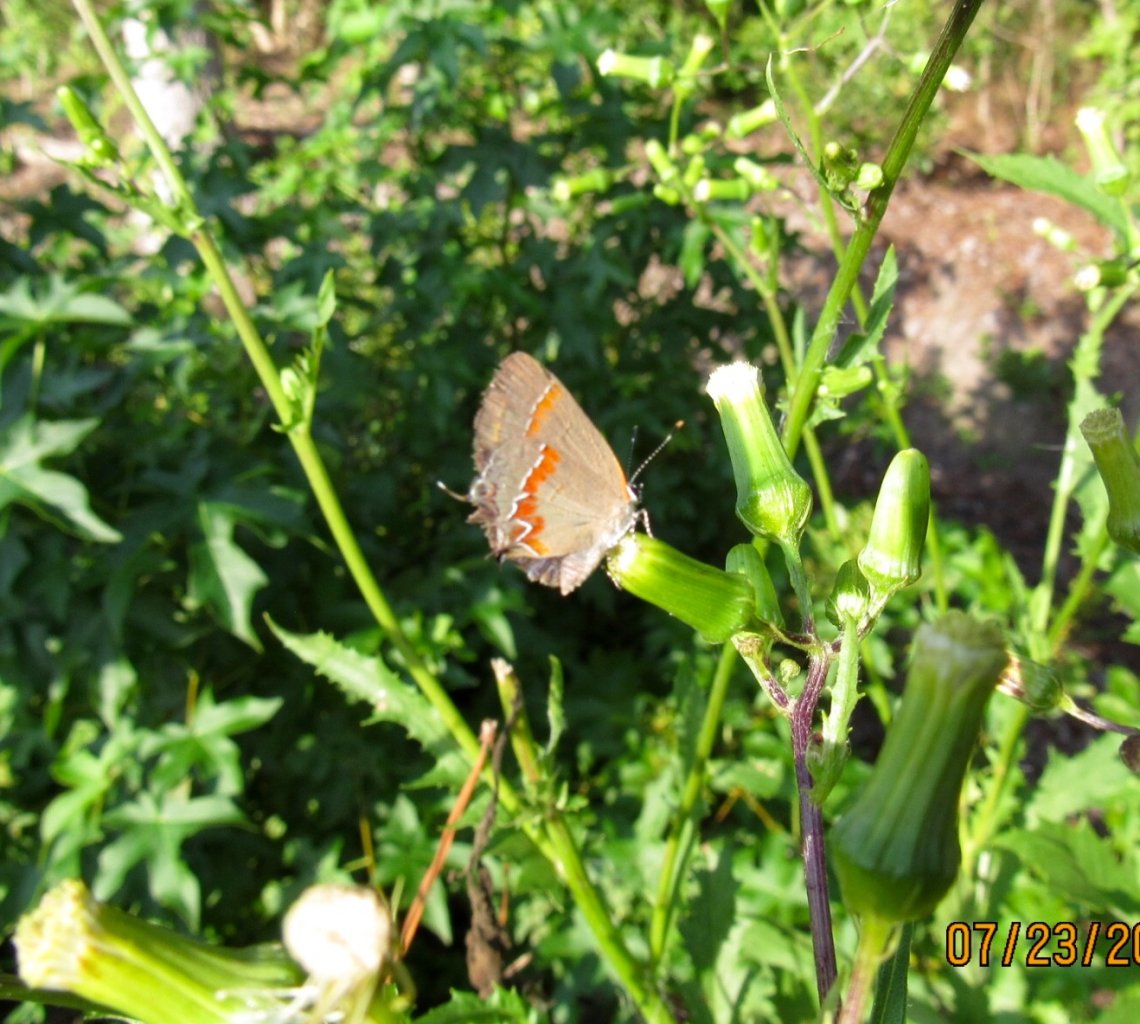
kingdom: Animalia
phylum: Arthropoda
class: Insecta
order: Lepidoptera
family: Lycaenidae
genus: Calycopis
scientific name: Calycopis cecrops
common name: Red-banded Hairstreak
